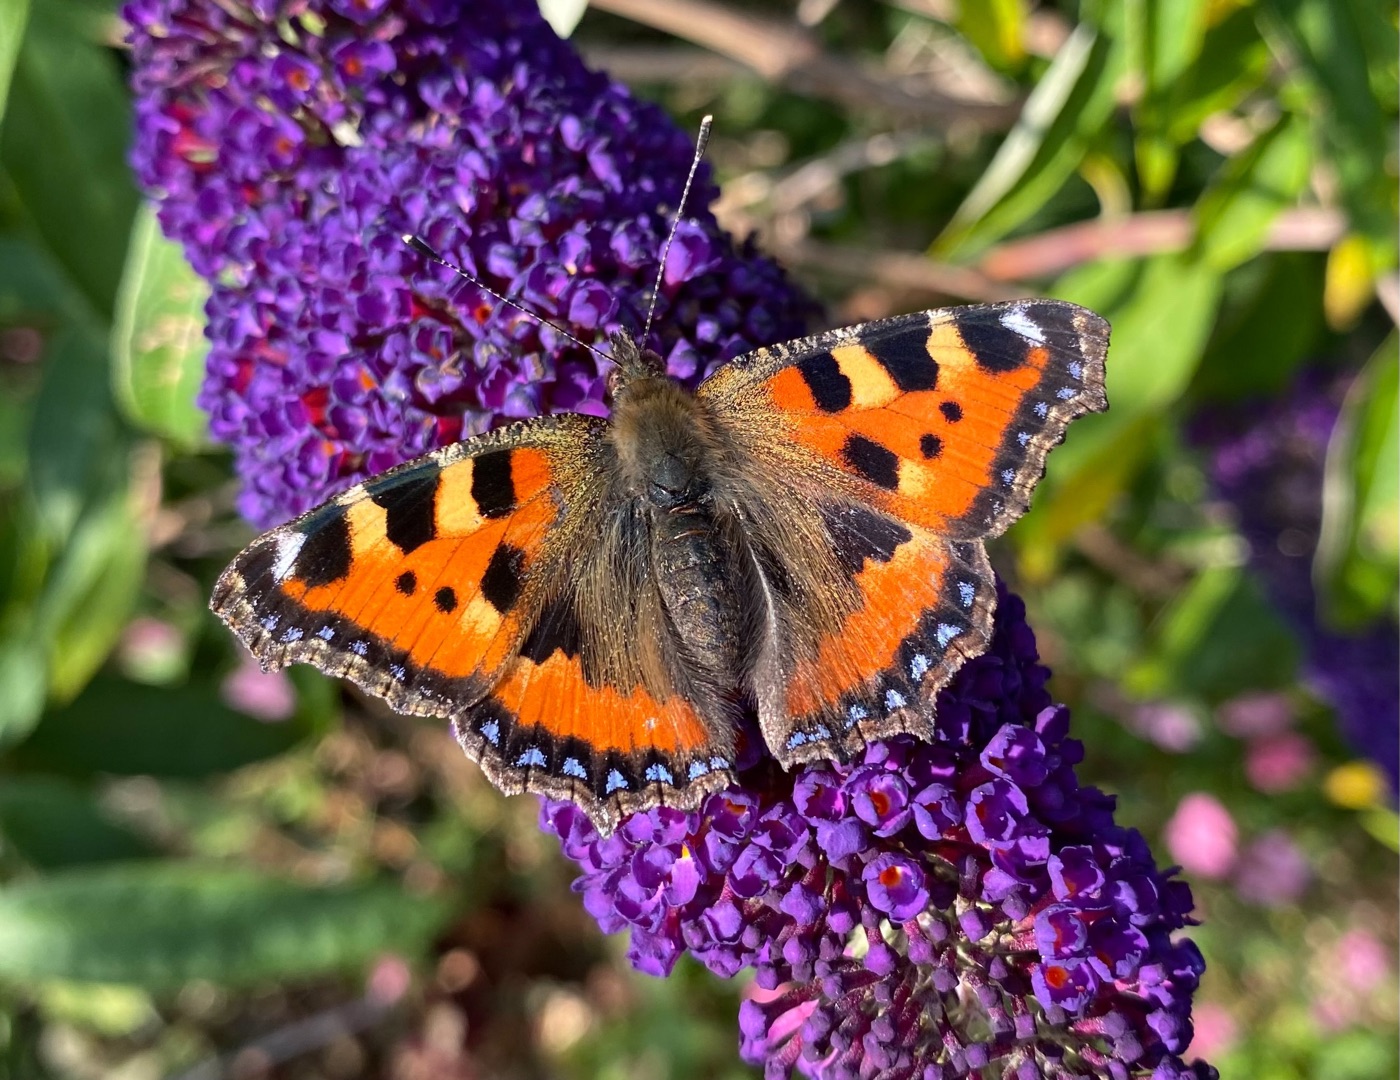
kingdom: Animalia
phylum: Arthropoda
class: Insecta
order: Lepidoptera
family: Nymphalidae
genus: Aglais
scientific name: Aglais urticae
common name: Nældens takvinge
